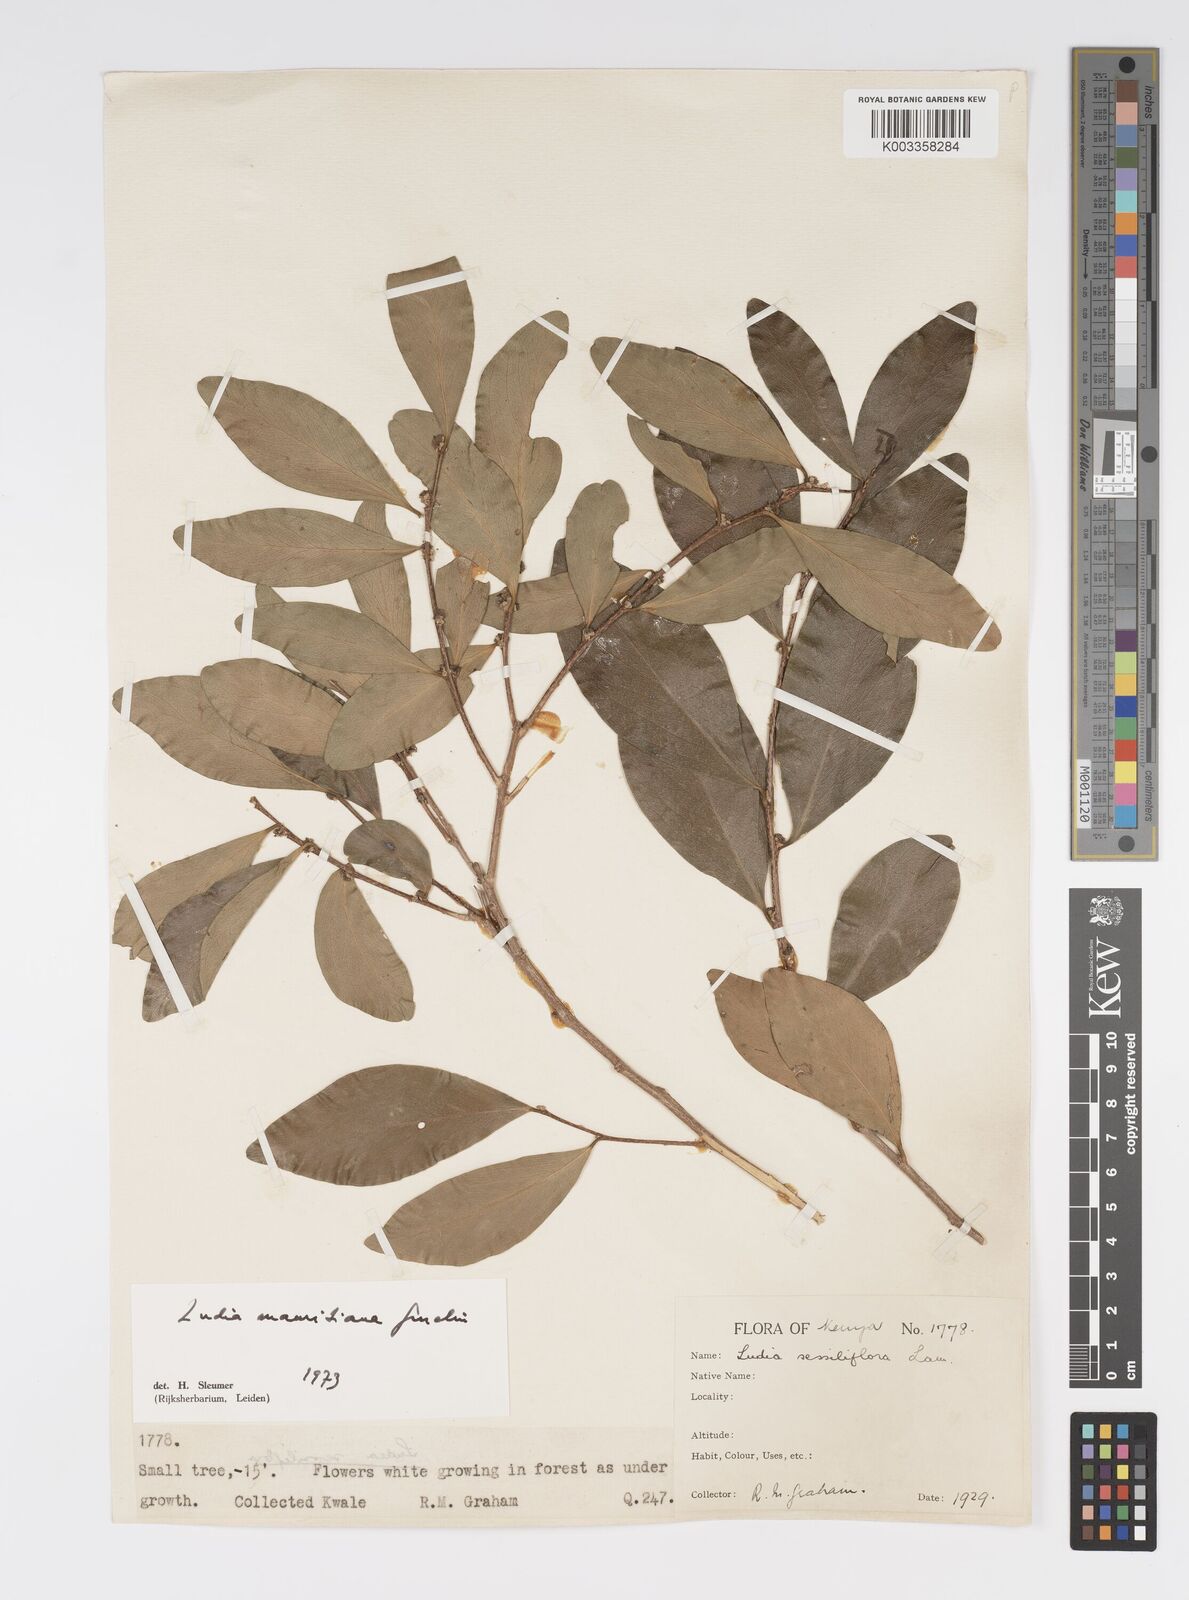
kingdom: Plantae
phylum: Tracheophyta
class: Magnoliopsida
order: Malpighiales
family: Salicaceae
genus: Ludia
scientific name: Ludia mauritiana
